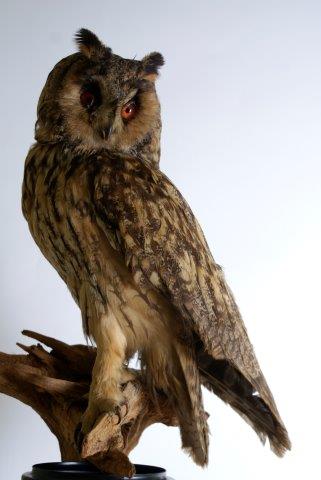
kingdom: Animalia
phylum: Chordata
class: Aves
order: Strigiformes
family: Strigidae
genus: Asio
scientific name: Asio otus
